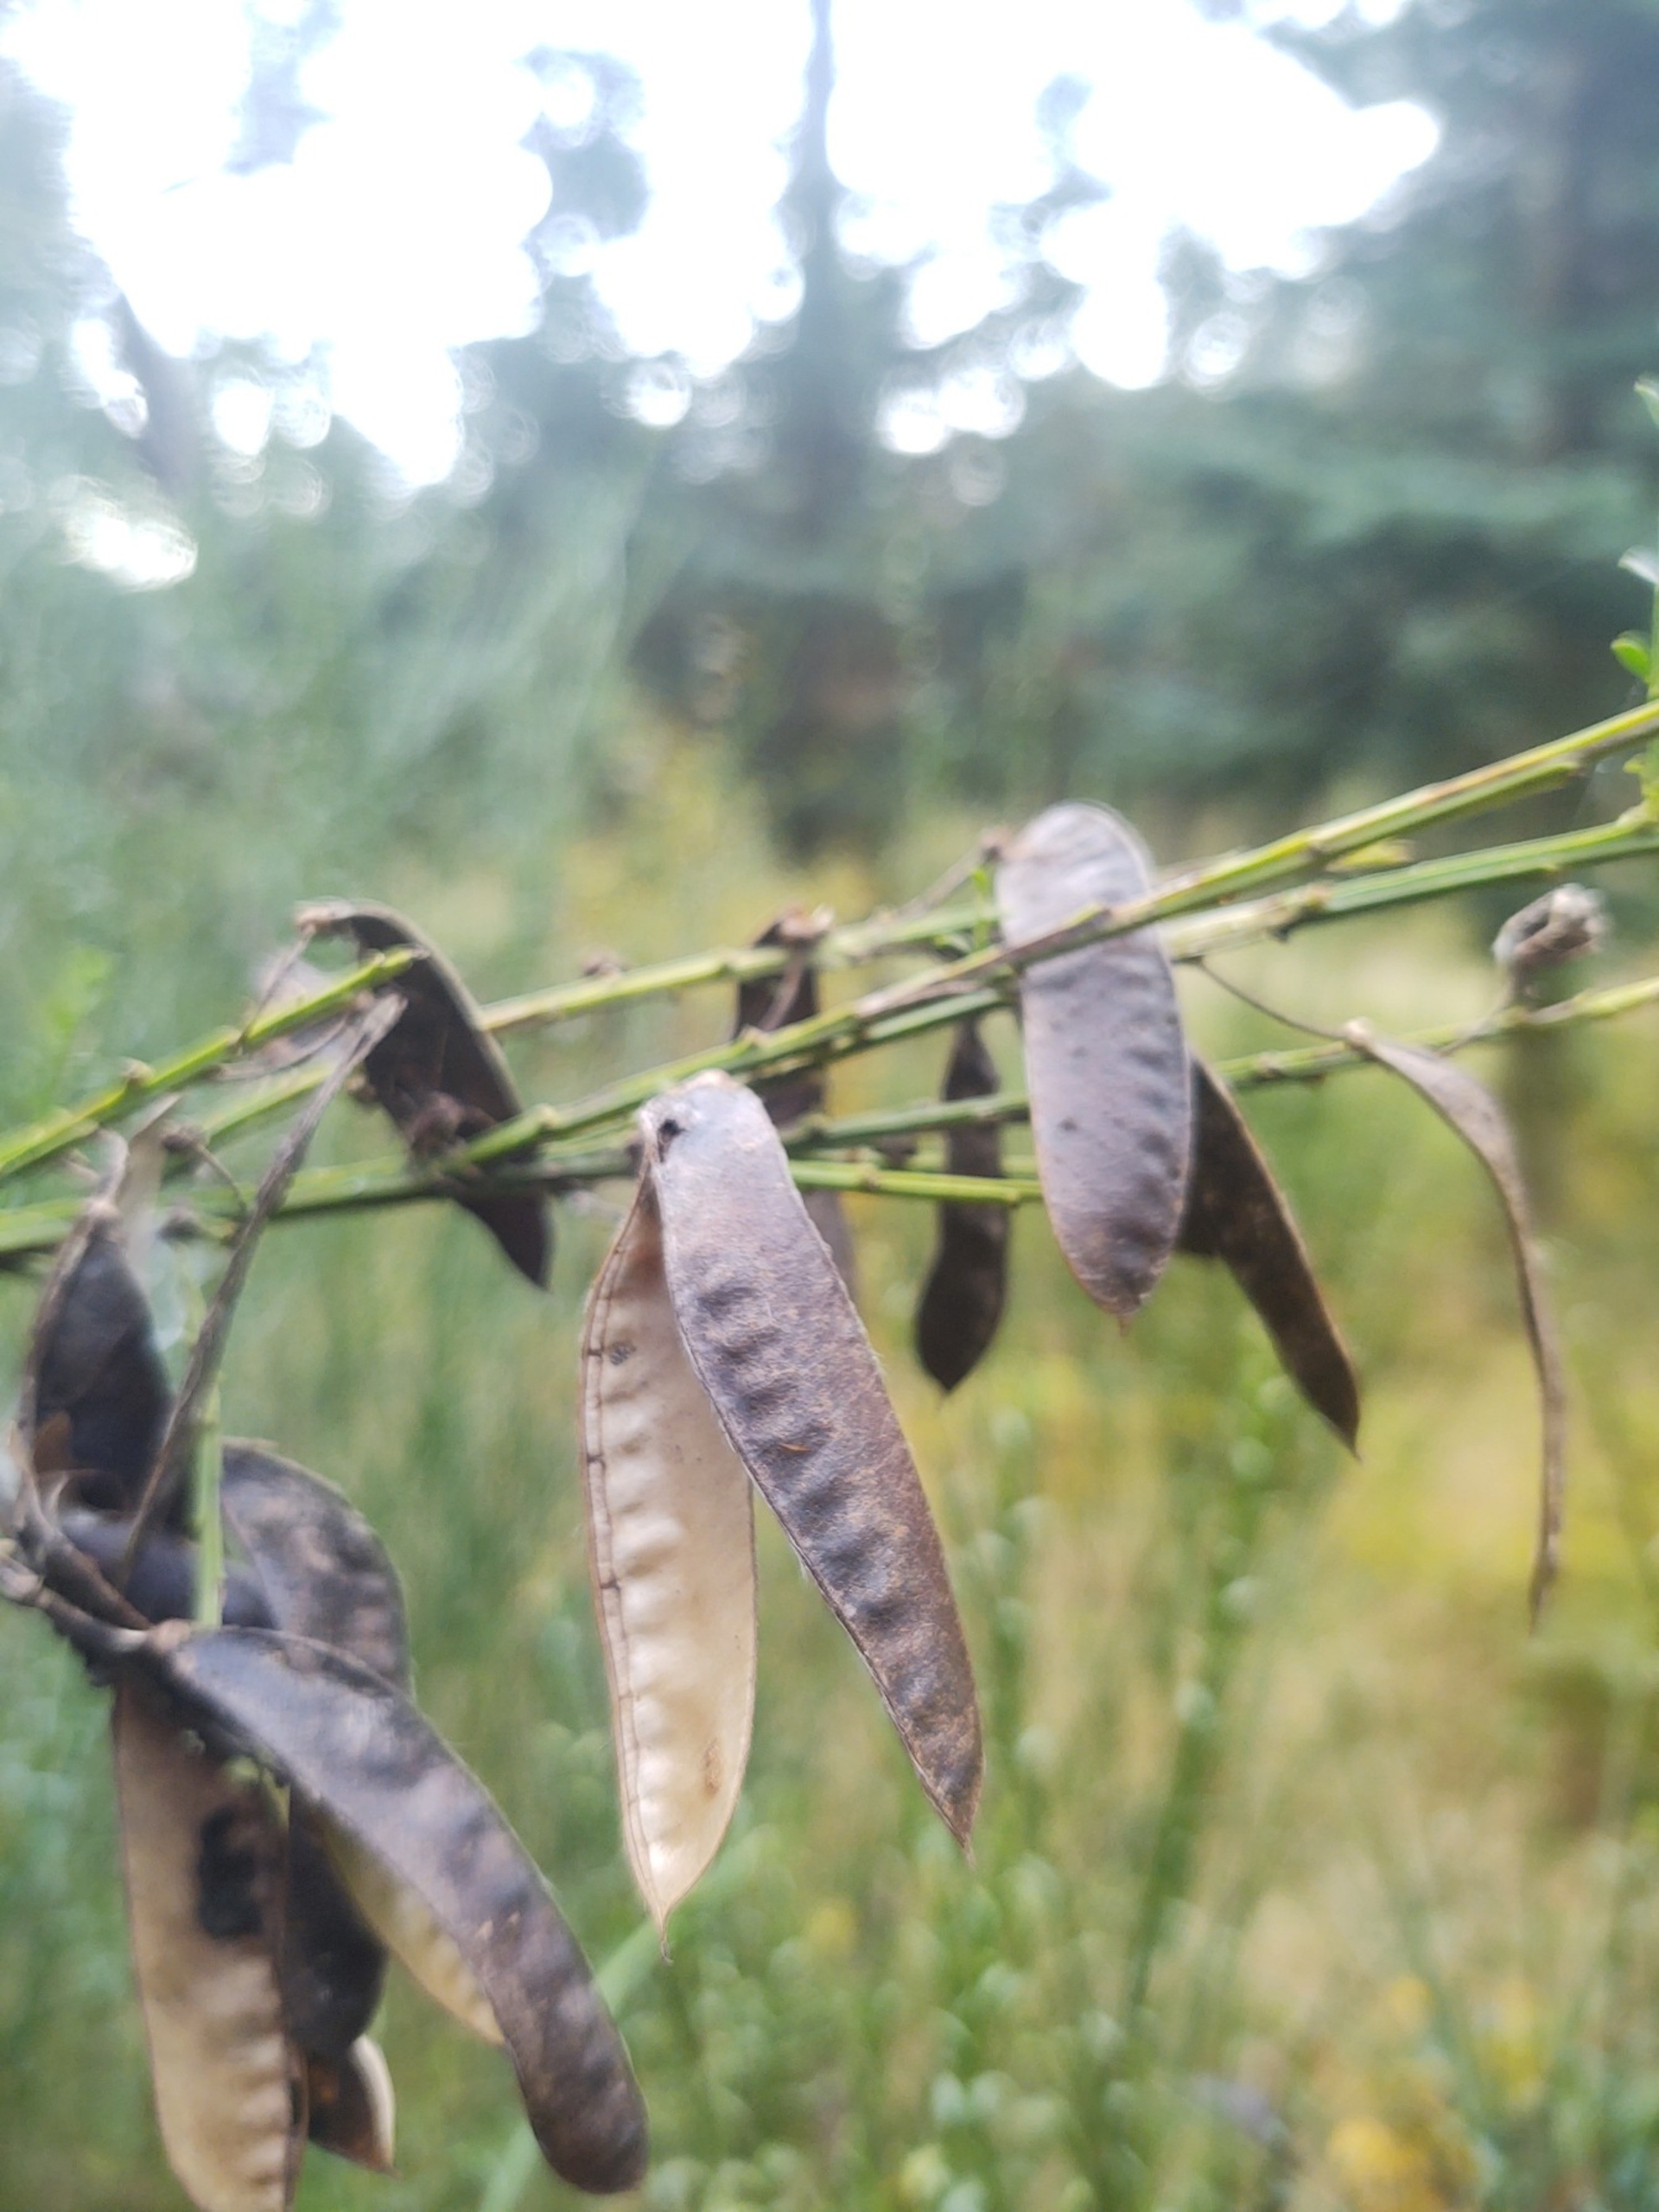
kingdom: Plantae
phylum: Tracheophyta
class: Magnoliopsida
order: Fabales
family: Fabaceae
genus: Cytisus
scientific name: Cytisus scoparius
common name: Almindelig gyvel
